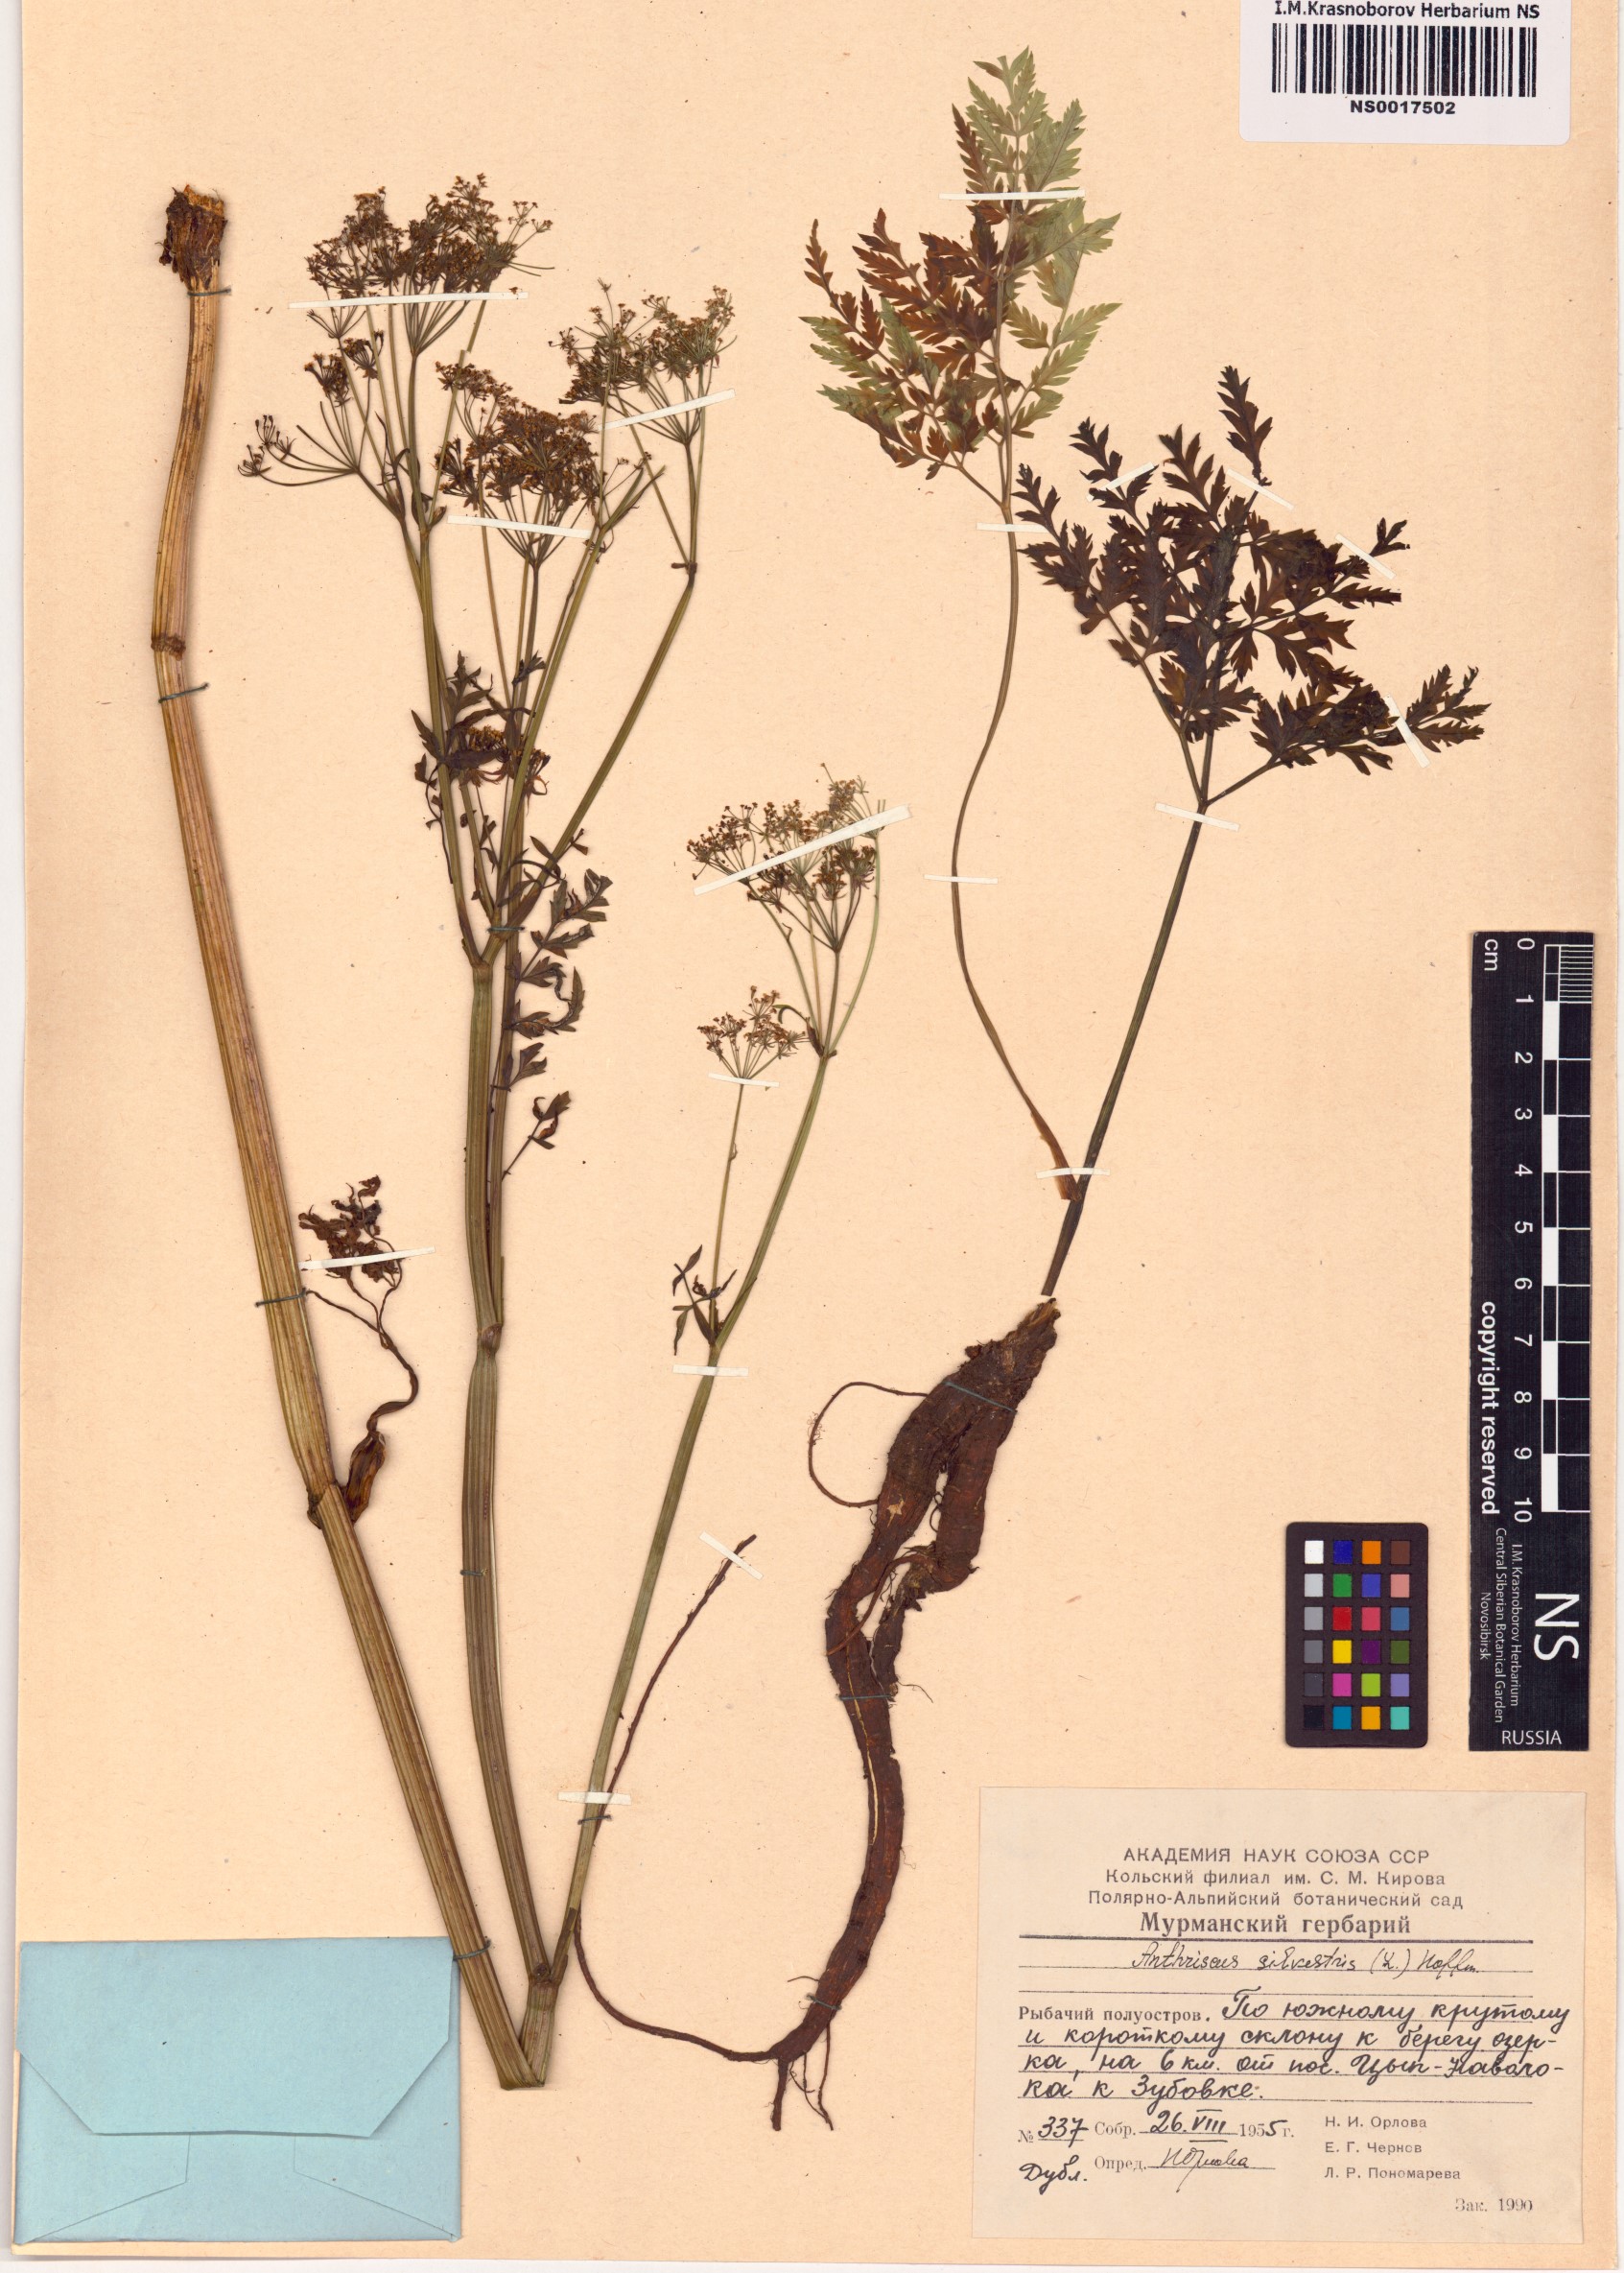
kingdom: Plantae
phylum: Tracheophyta
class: Magnoliopsida
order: Apiales
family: Apiaceae
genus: Anthriscus
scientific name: Anthriscus sylvestris
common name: Cow parsley
